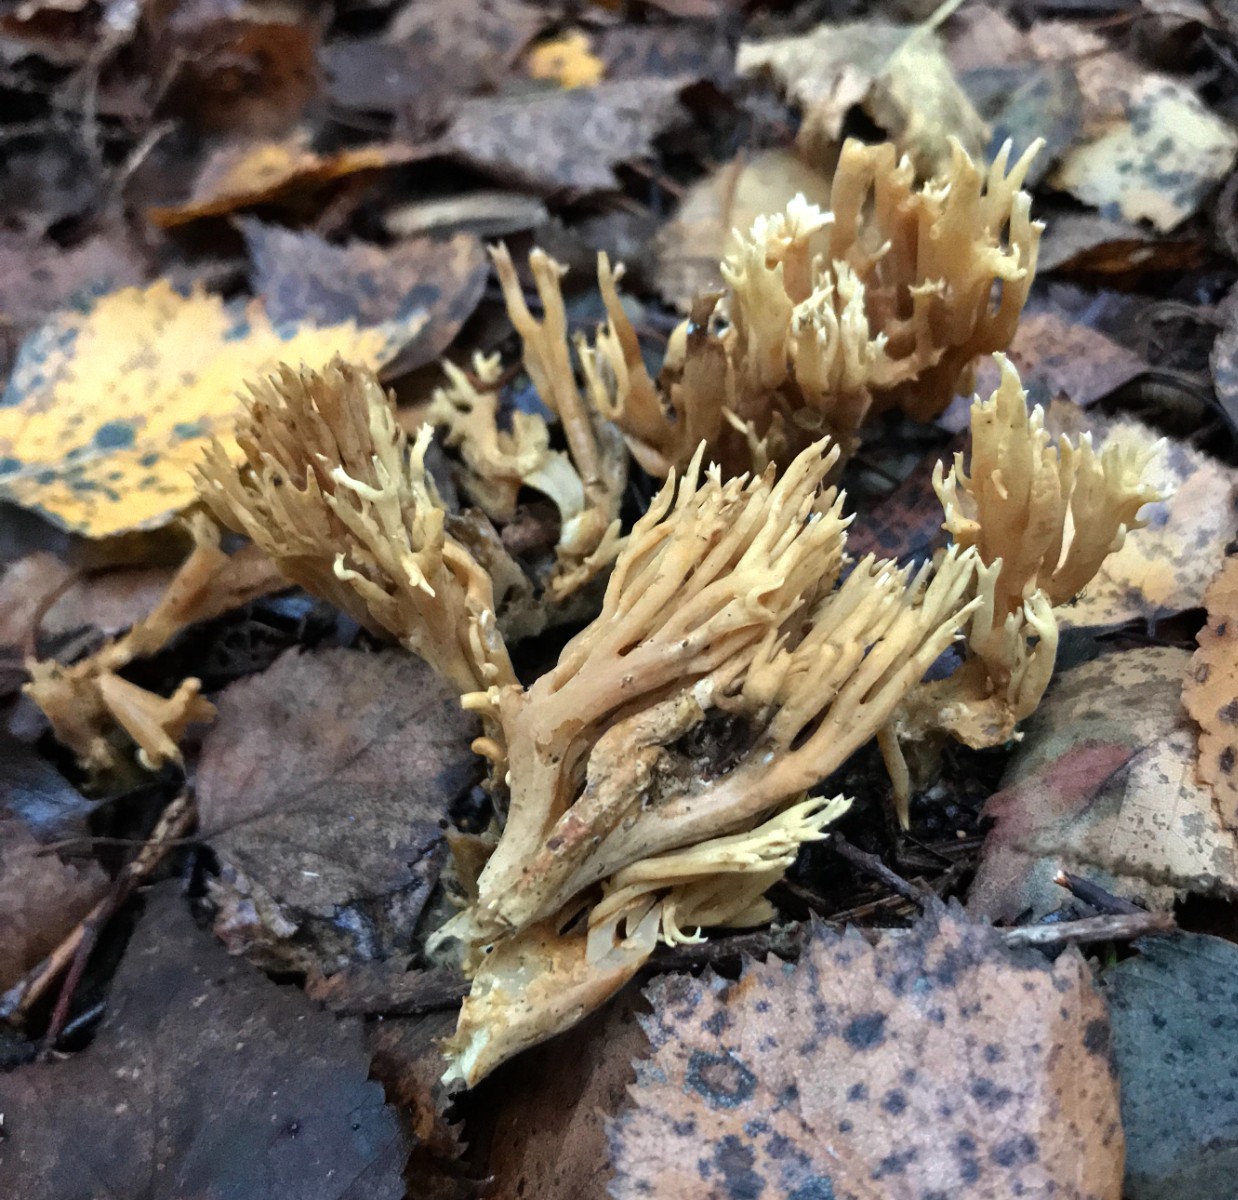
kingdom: Fungi
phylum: Basidiomycota
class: Agaricomycetes
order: Gomphales
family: Gomphaceae
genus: Phaeoclavulina
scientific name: Phaeoclavulina eumorpha
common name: gran-koralsvamp
